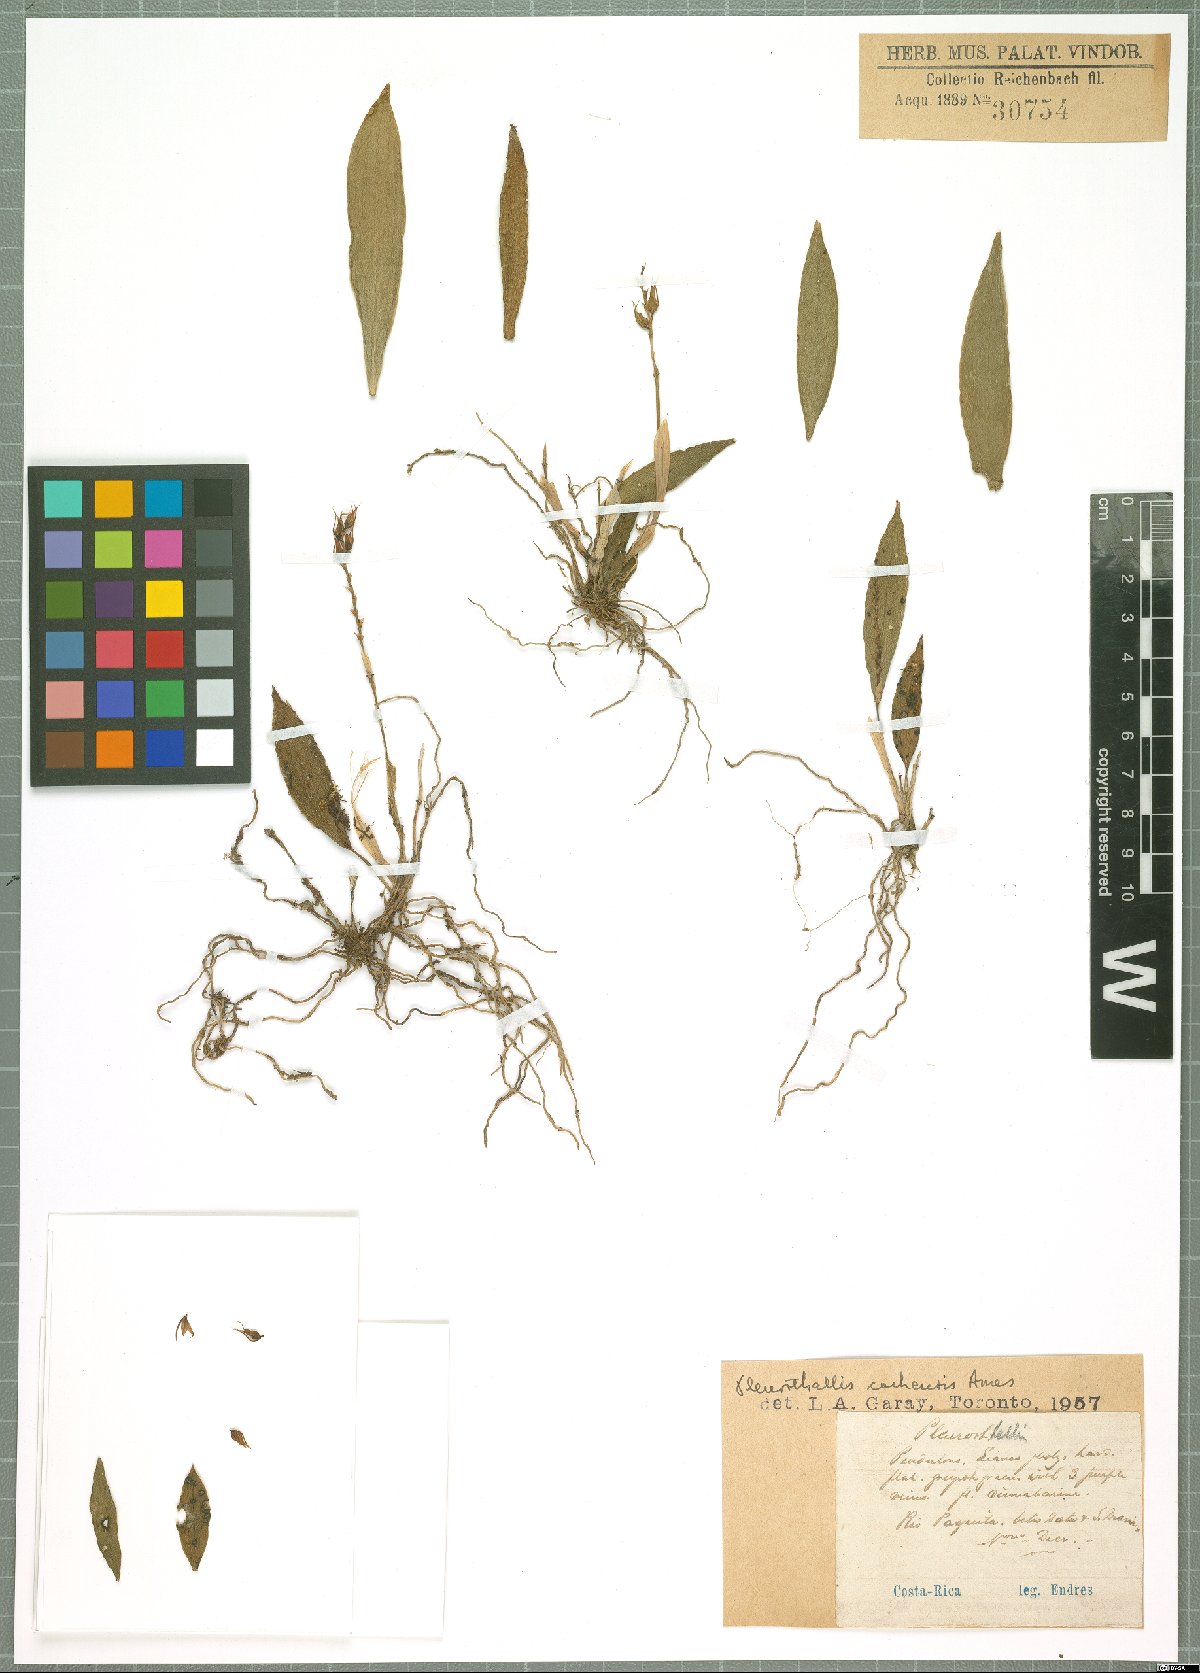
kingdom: Plantae
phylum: Tracheophyta
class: Liliopsida
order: Asparagales
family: Orchidaceae
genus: Acianthera
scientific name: Acianthera cachensis
